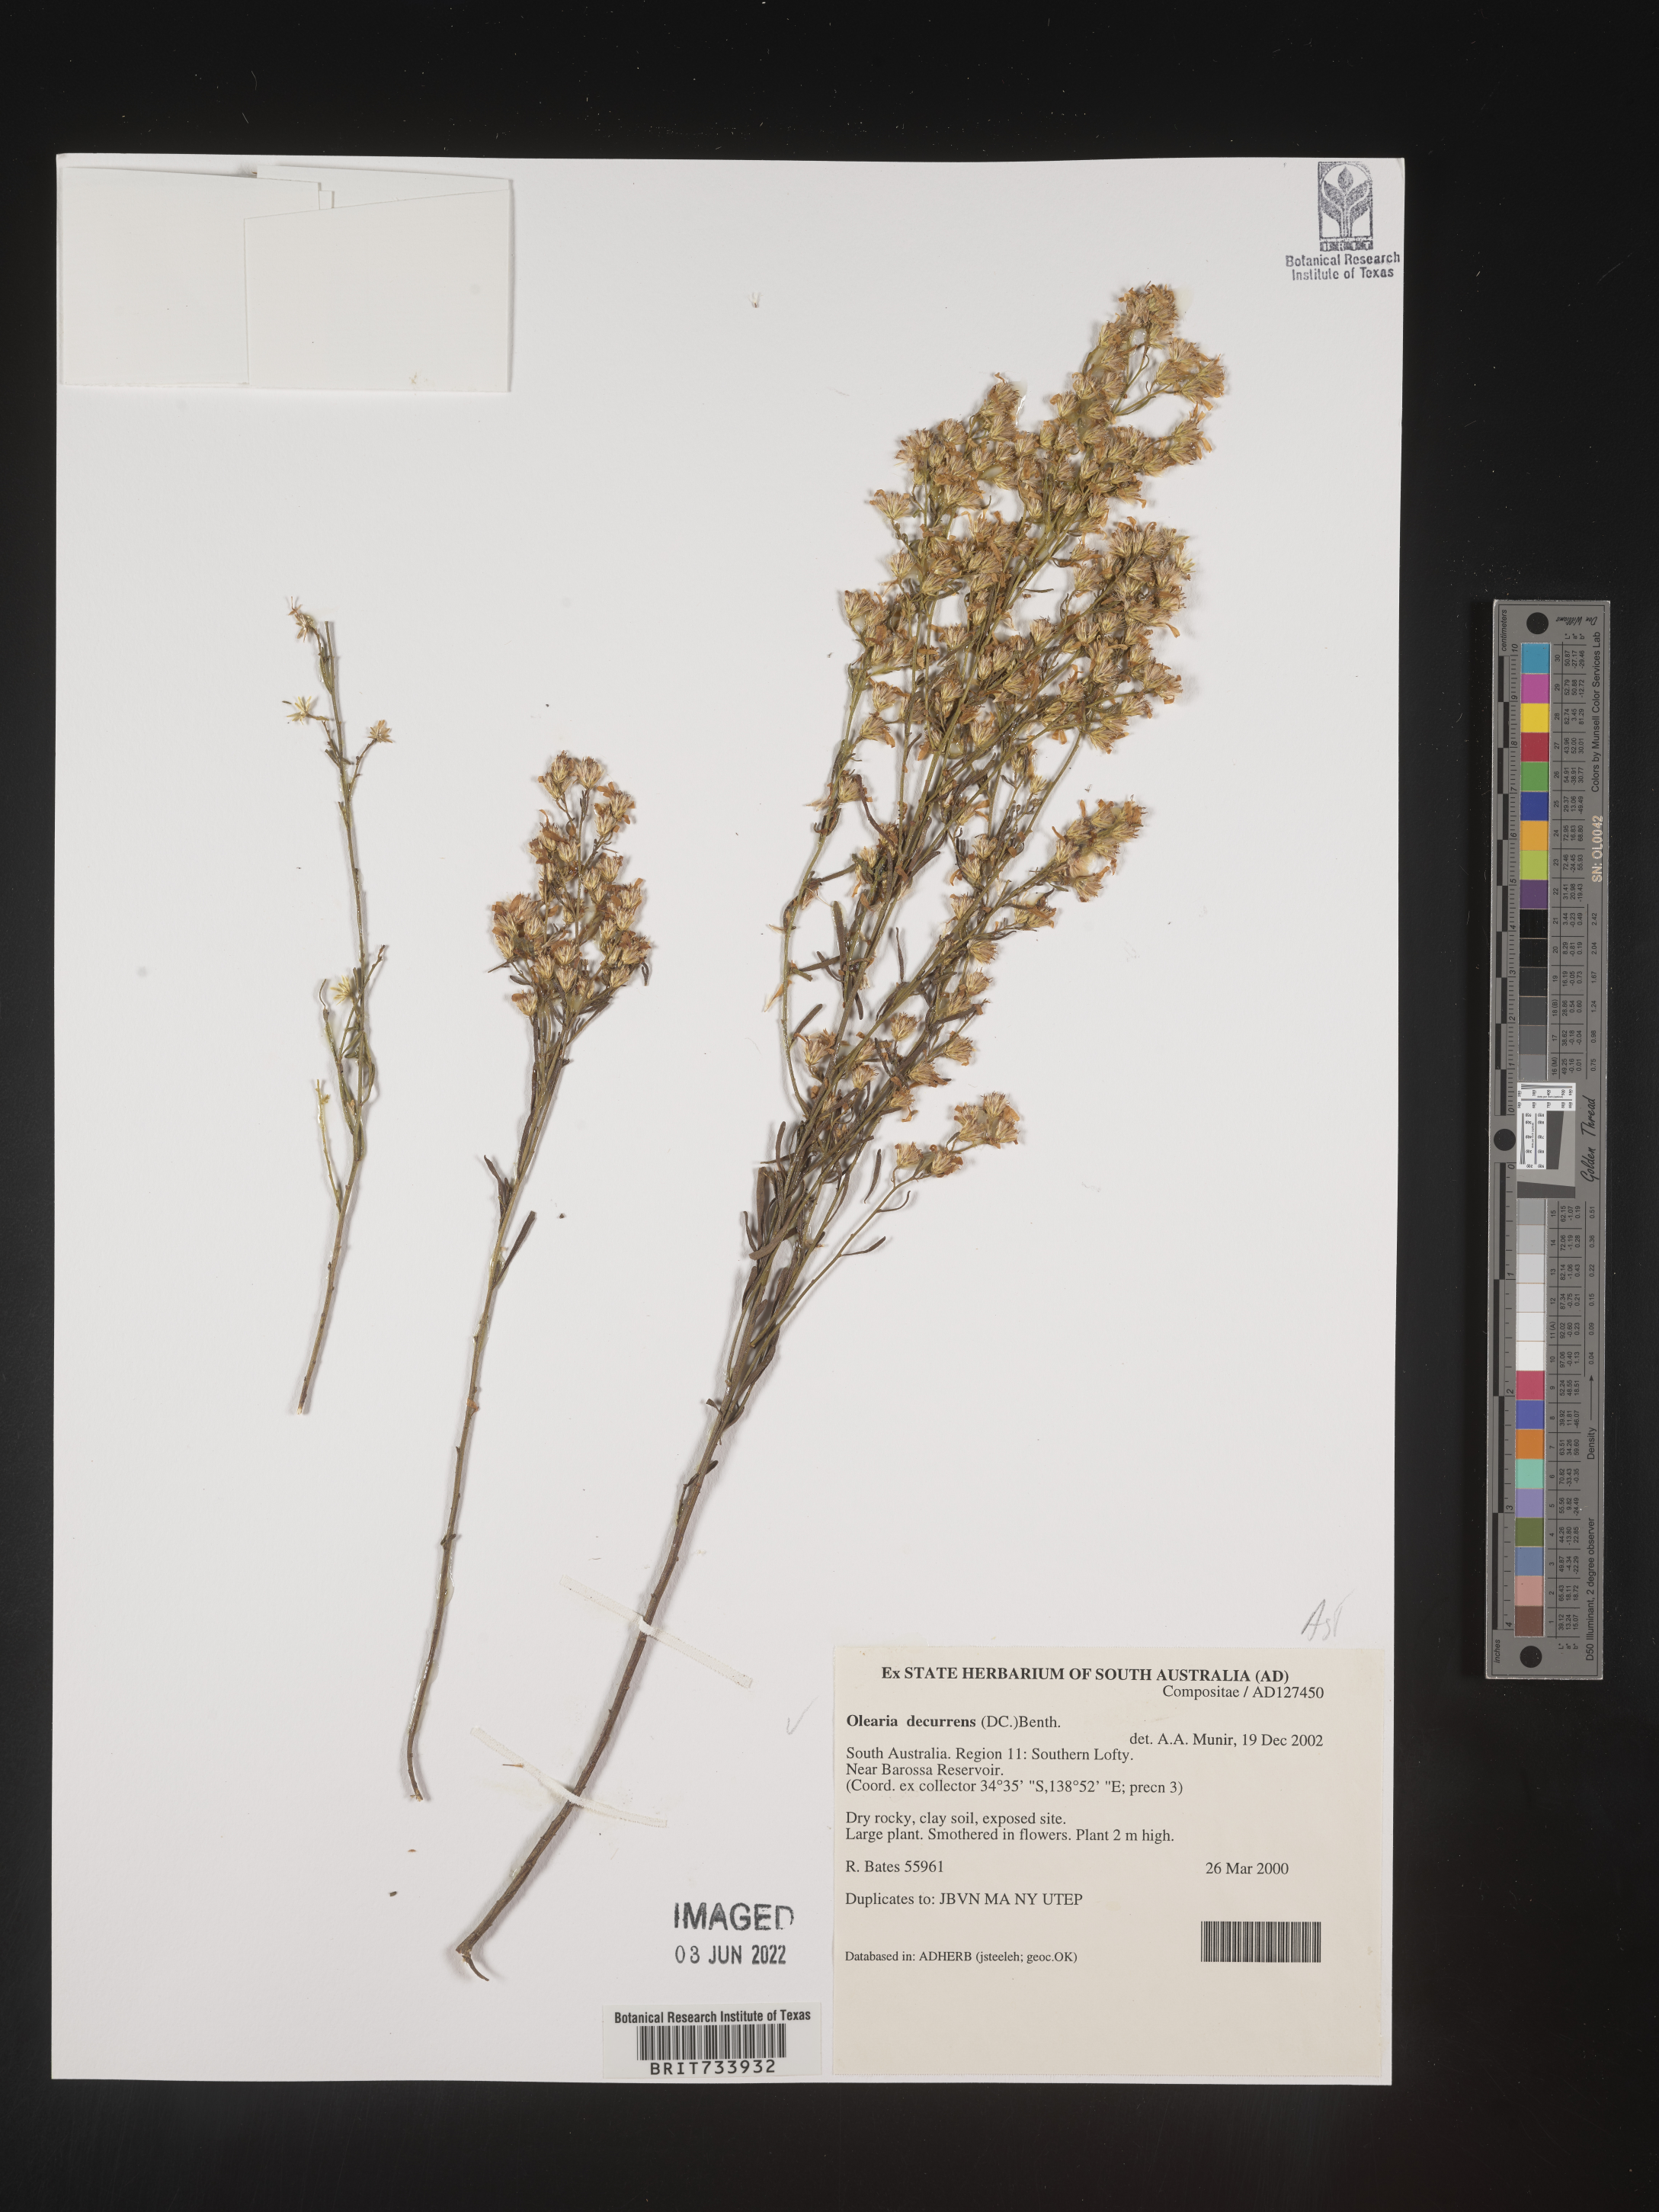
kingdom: Plantae
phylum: Tracheophyta
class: Magnoliopsida
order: Asterales
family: Asteraceae
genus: Olearia
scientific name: Olearia
